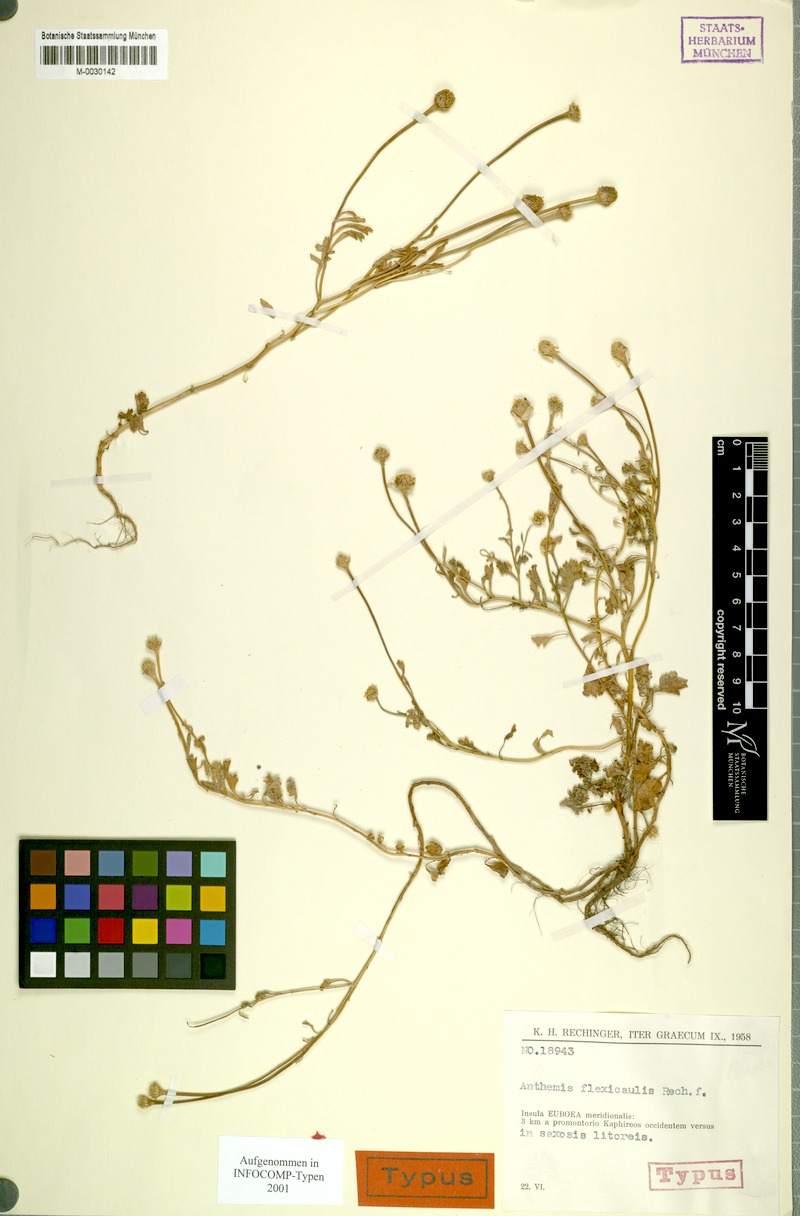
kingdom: Plantae
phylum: Tracheophyta
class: Magnoliopsida
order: Asterales
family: Asteraceae
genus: Anthemis
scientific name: Anthemis werneri
